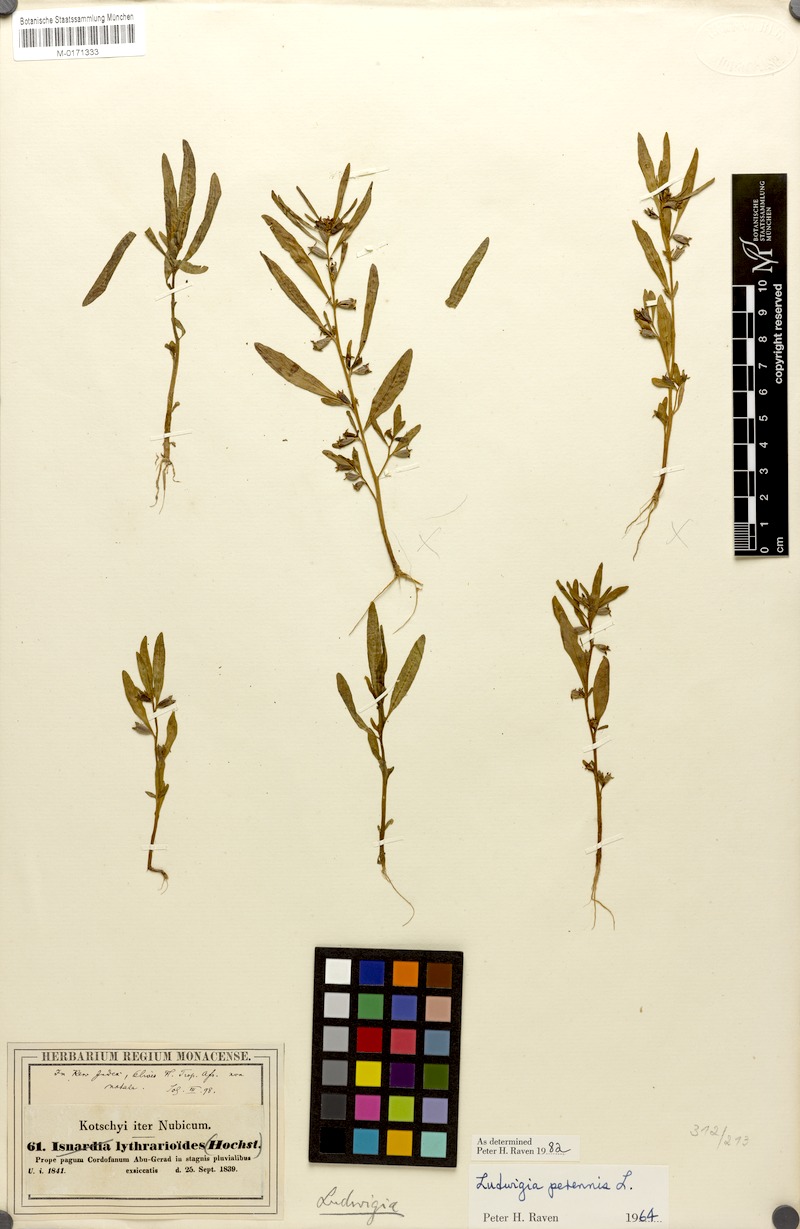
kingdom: Plantae
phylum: Tracheophyta
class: Magnoliopsida
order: Myrtales
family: Onagraceae
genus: Ludwigia
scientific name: Ludwigia perennis
